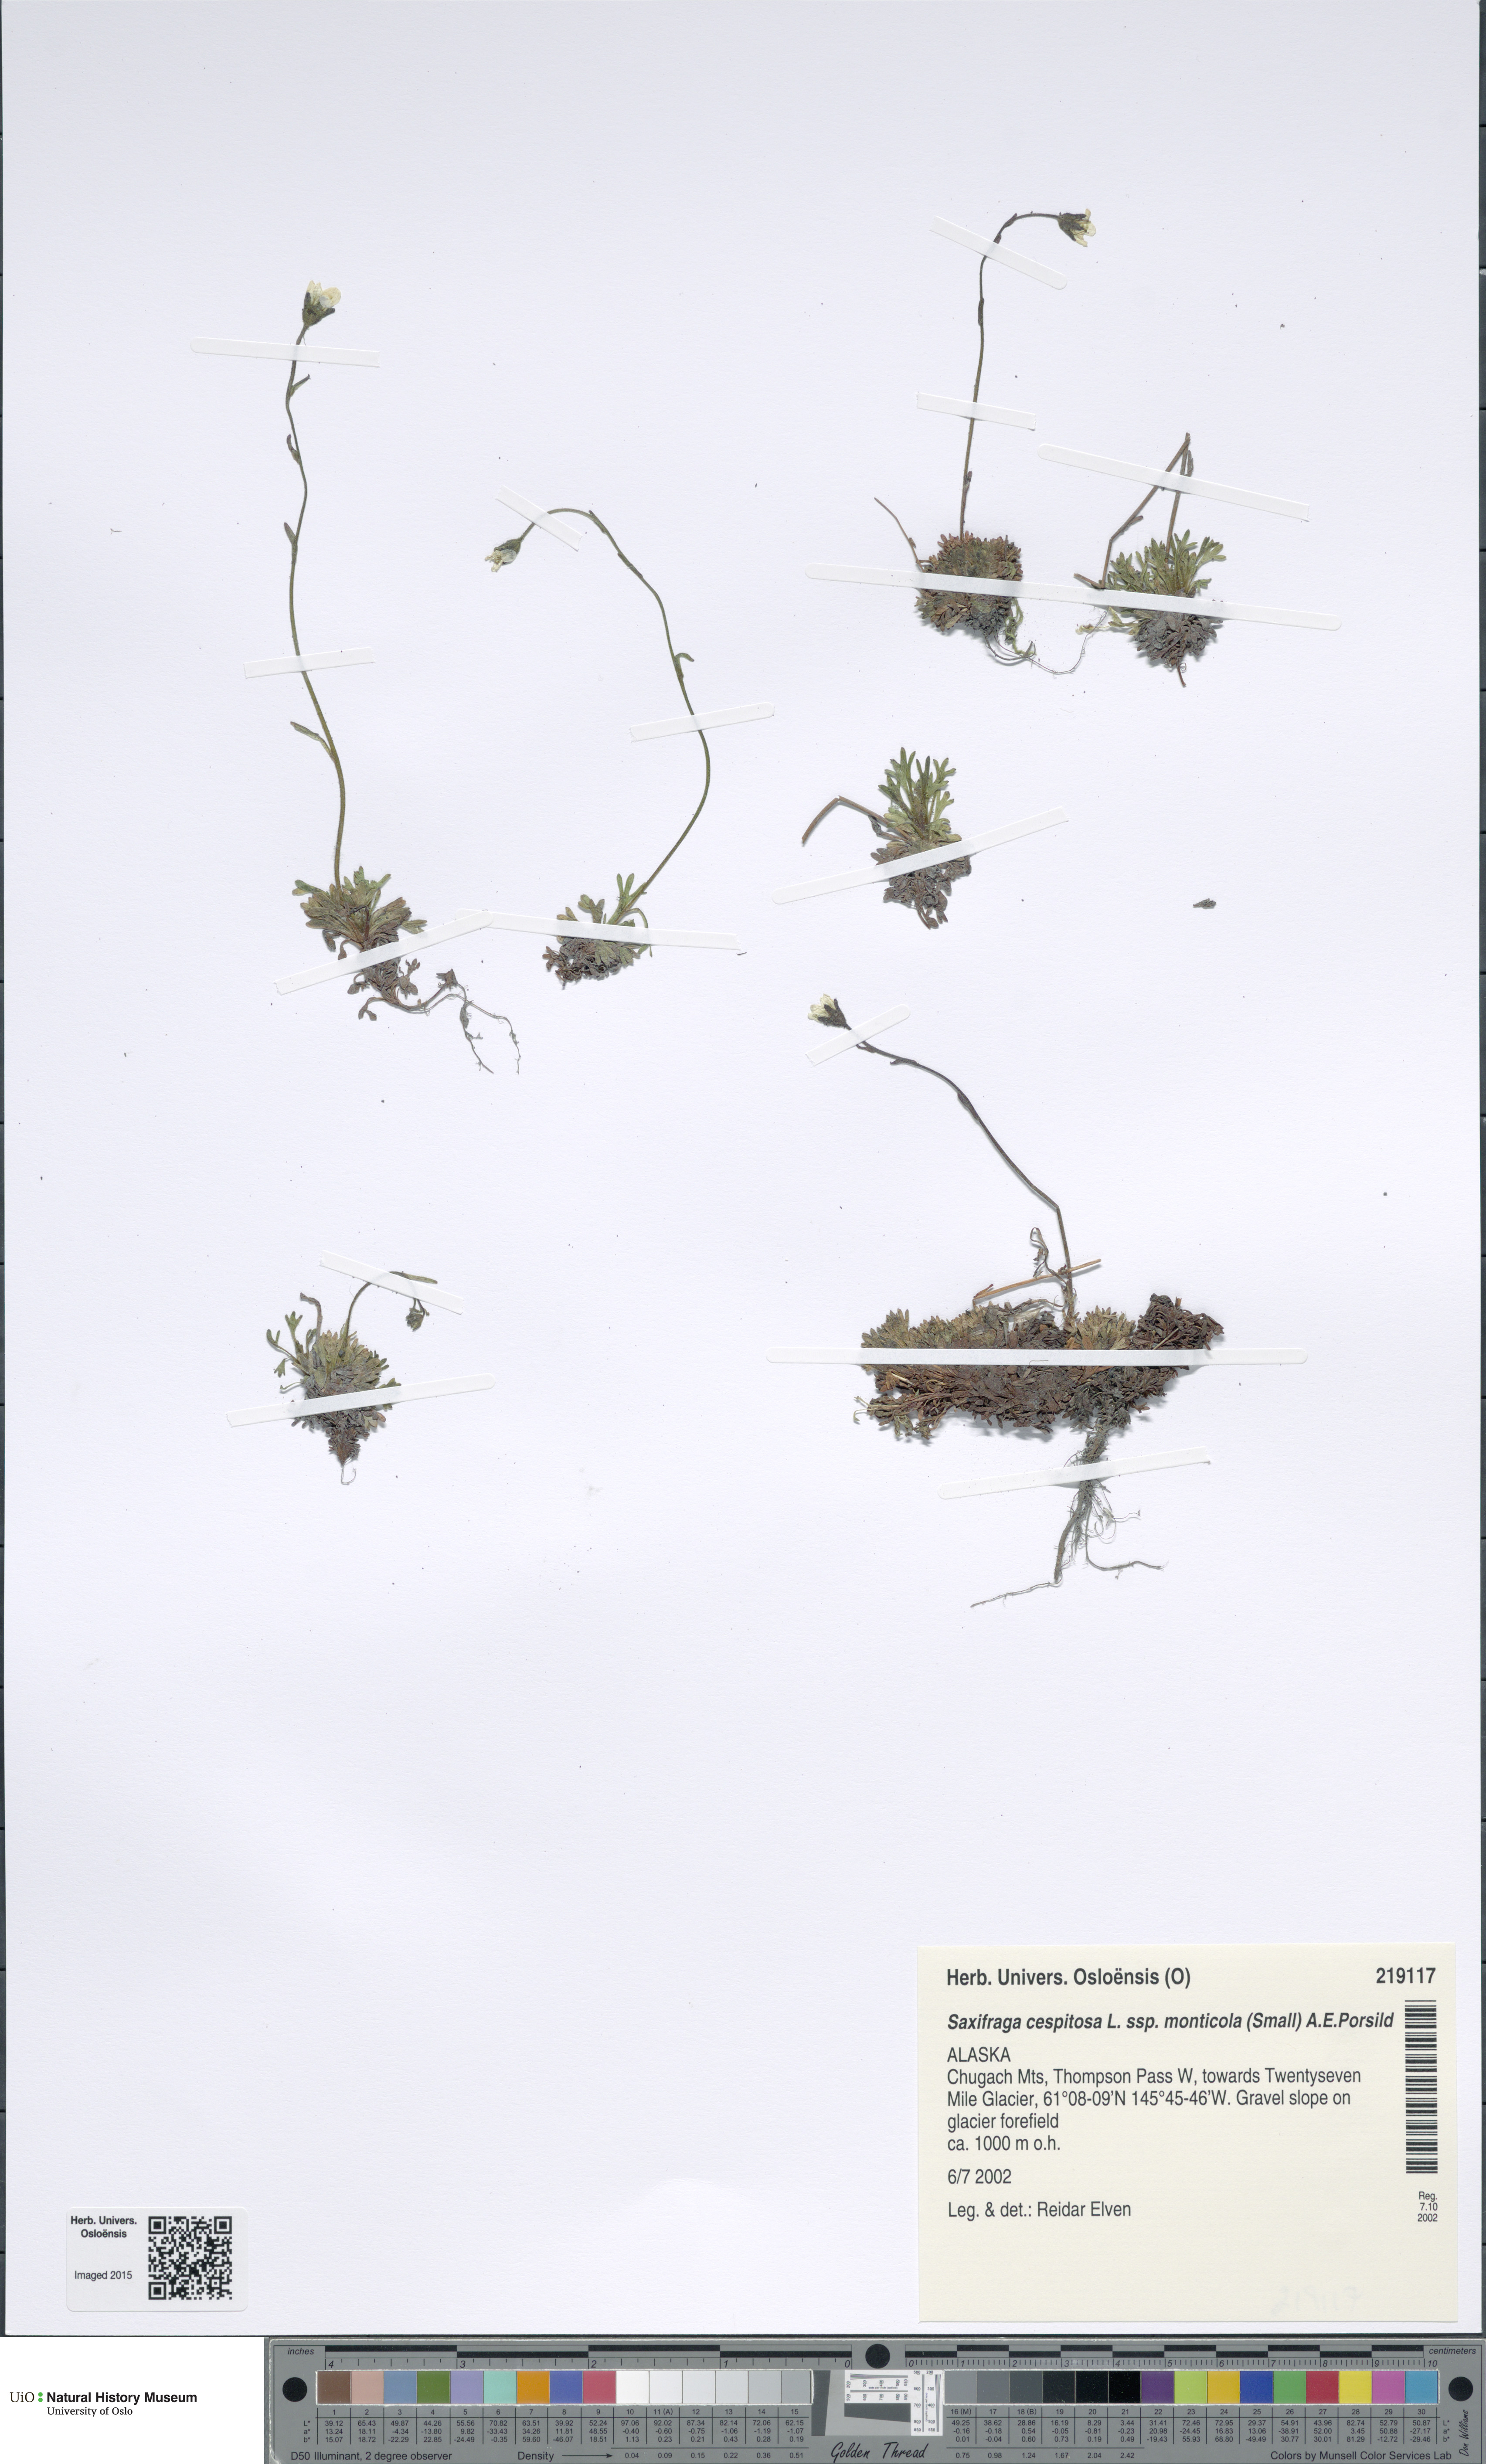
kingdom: Plantae
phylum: Tracheophyta
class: Magnoliopsida
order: Saxifragales
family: Saxifragaceae
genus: Saxifraga
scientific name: Saxifraga cespitosa
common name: Tufted saxifrage
